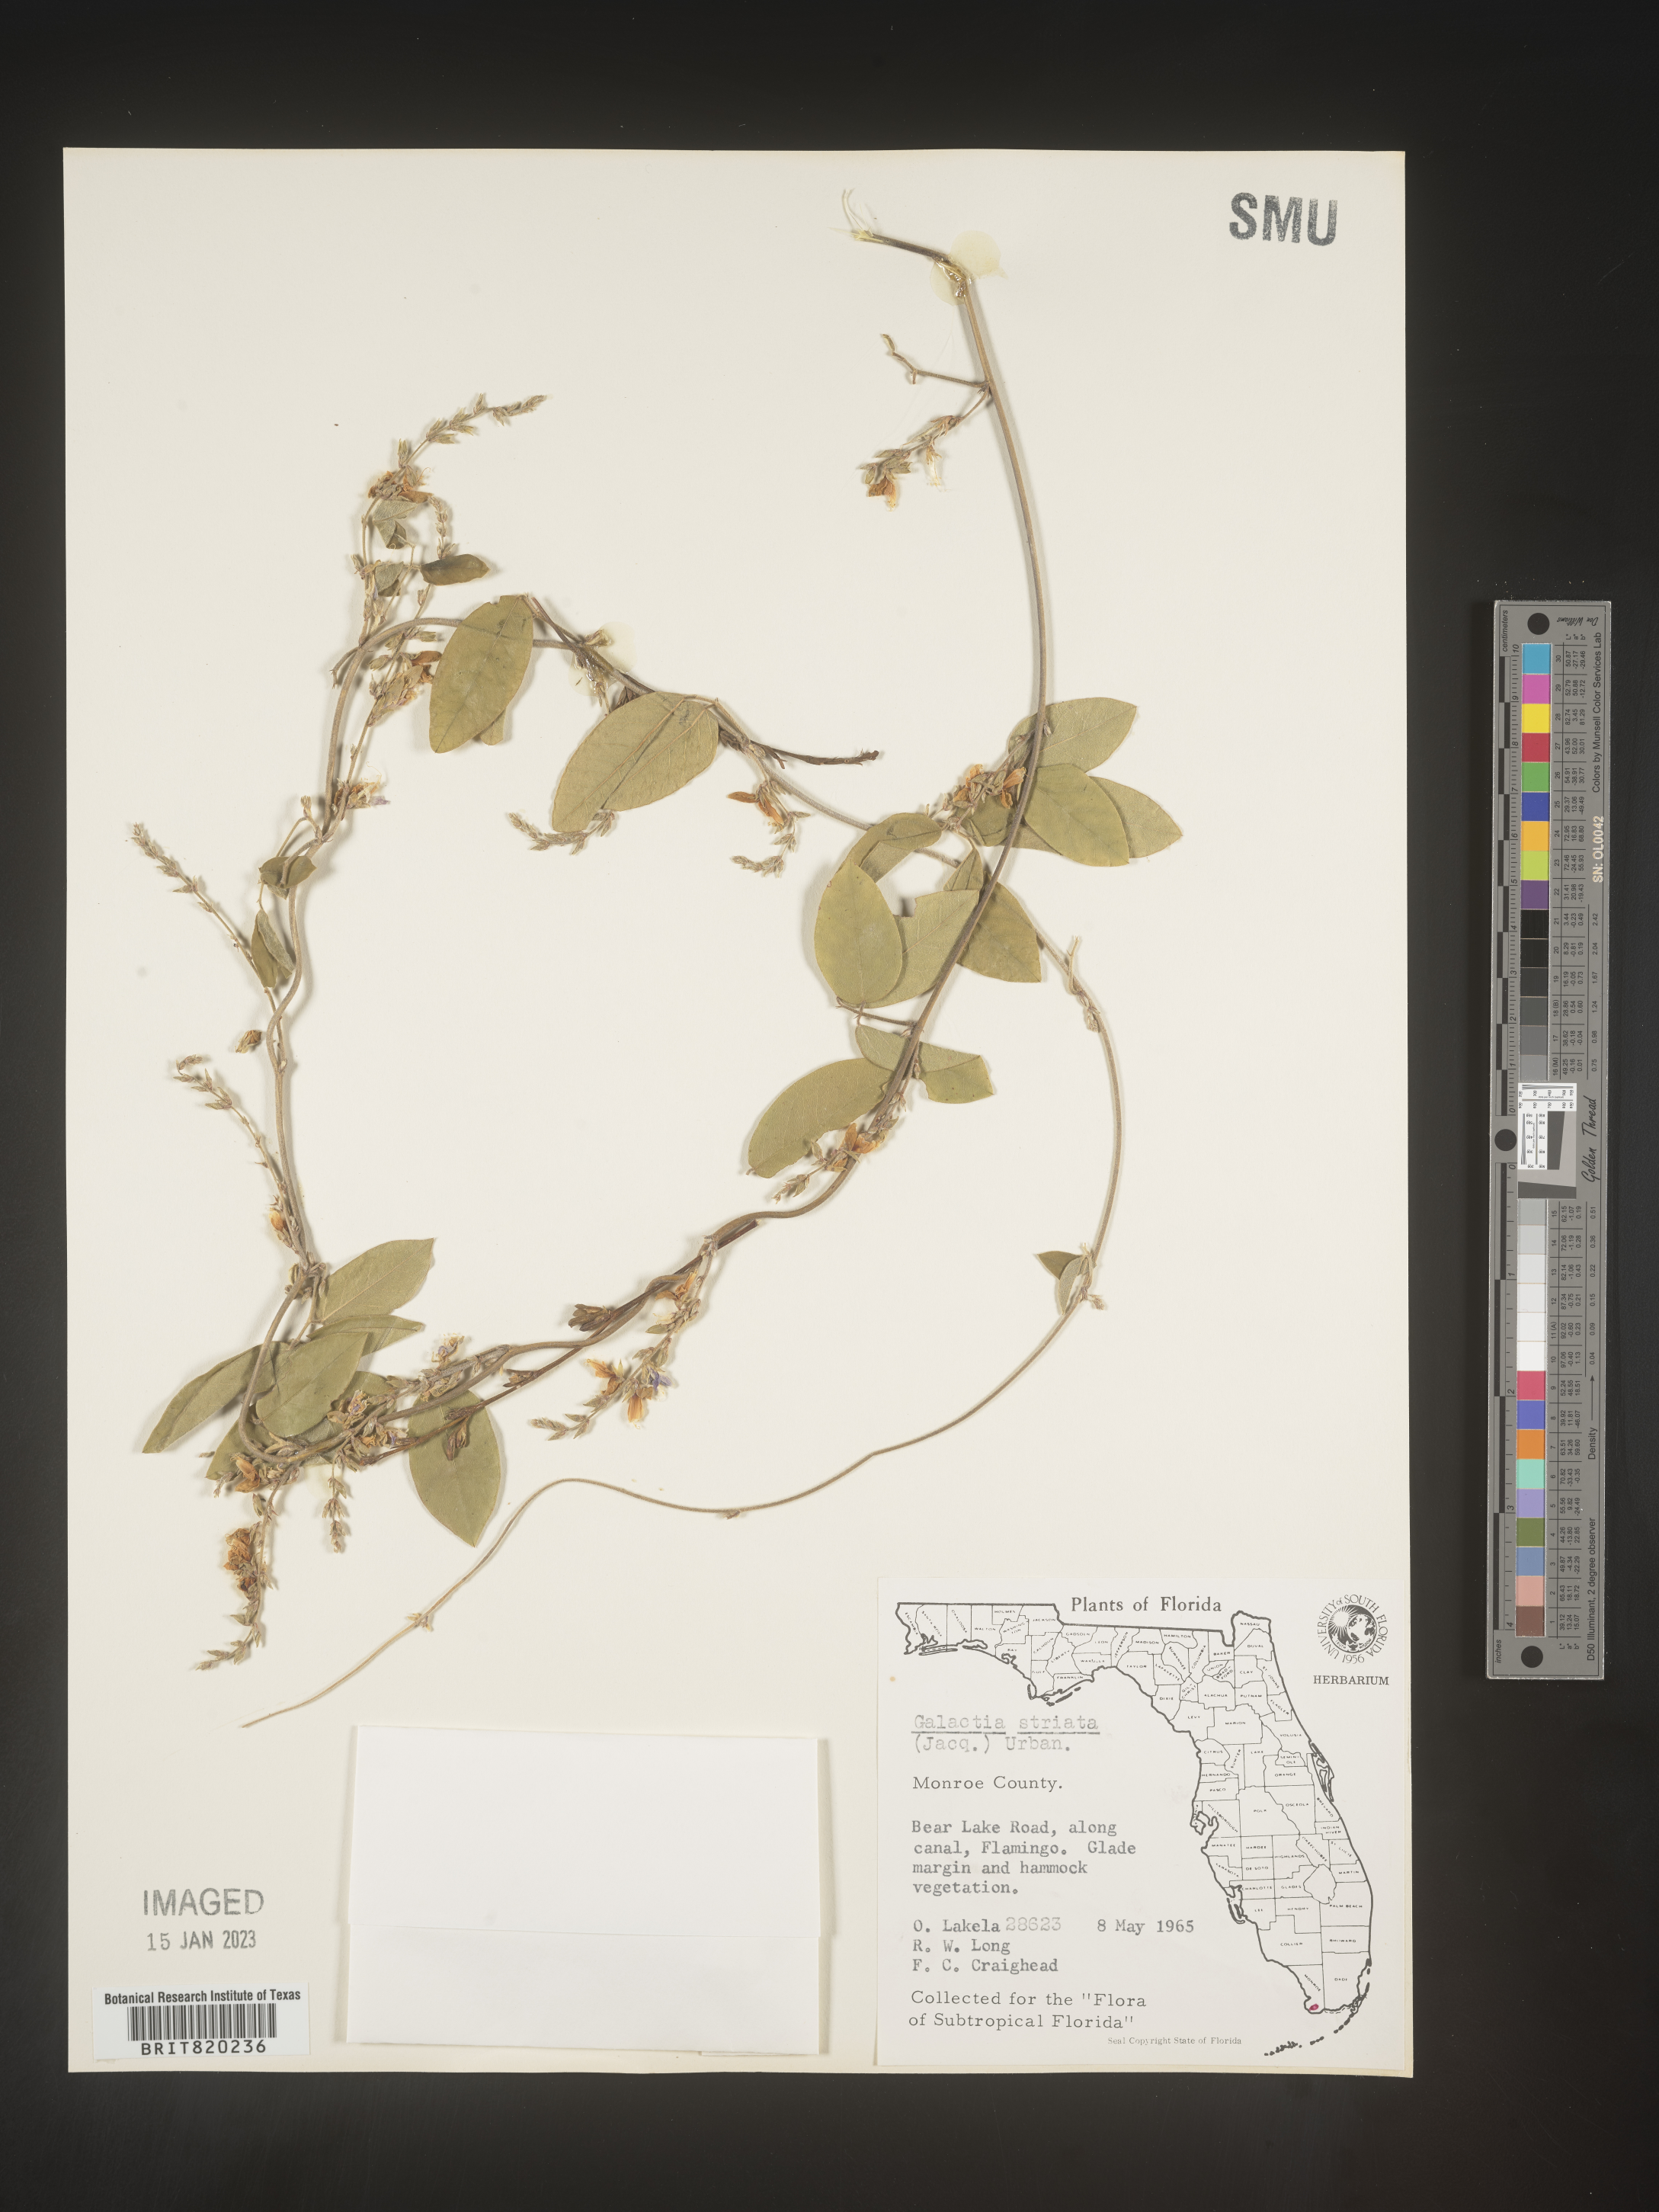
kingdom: Plantae
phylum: Tracheophyta
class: Magnoliopsida
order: Fabales
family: Fabaceae
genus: Galactia
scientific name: Galactia striata
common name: Florida hammock milkpea
